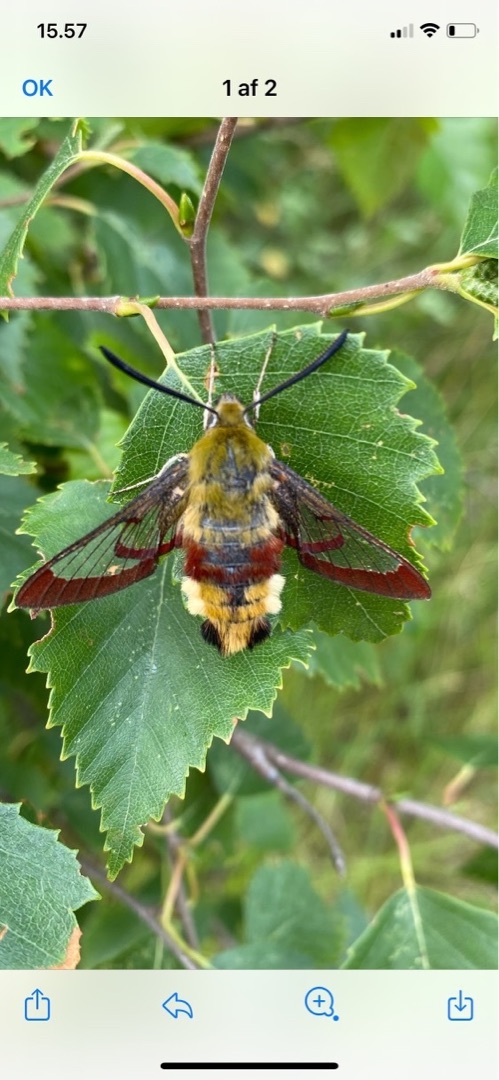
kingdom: Animalia
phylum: Arthropoda
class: Insecta
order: Lepidoptera
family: Sphingidae
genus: Hemaris
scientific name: Hemaris fuciformis
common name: Bredrandet humlebisværmer
